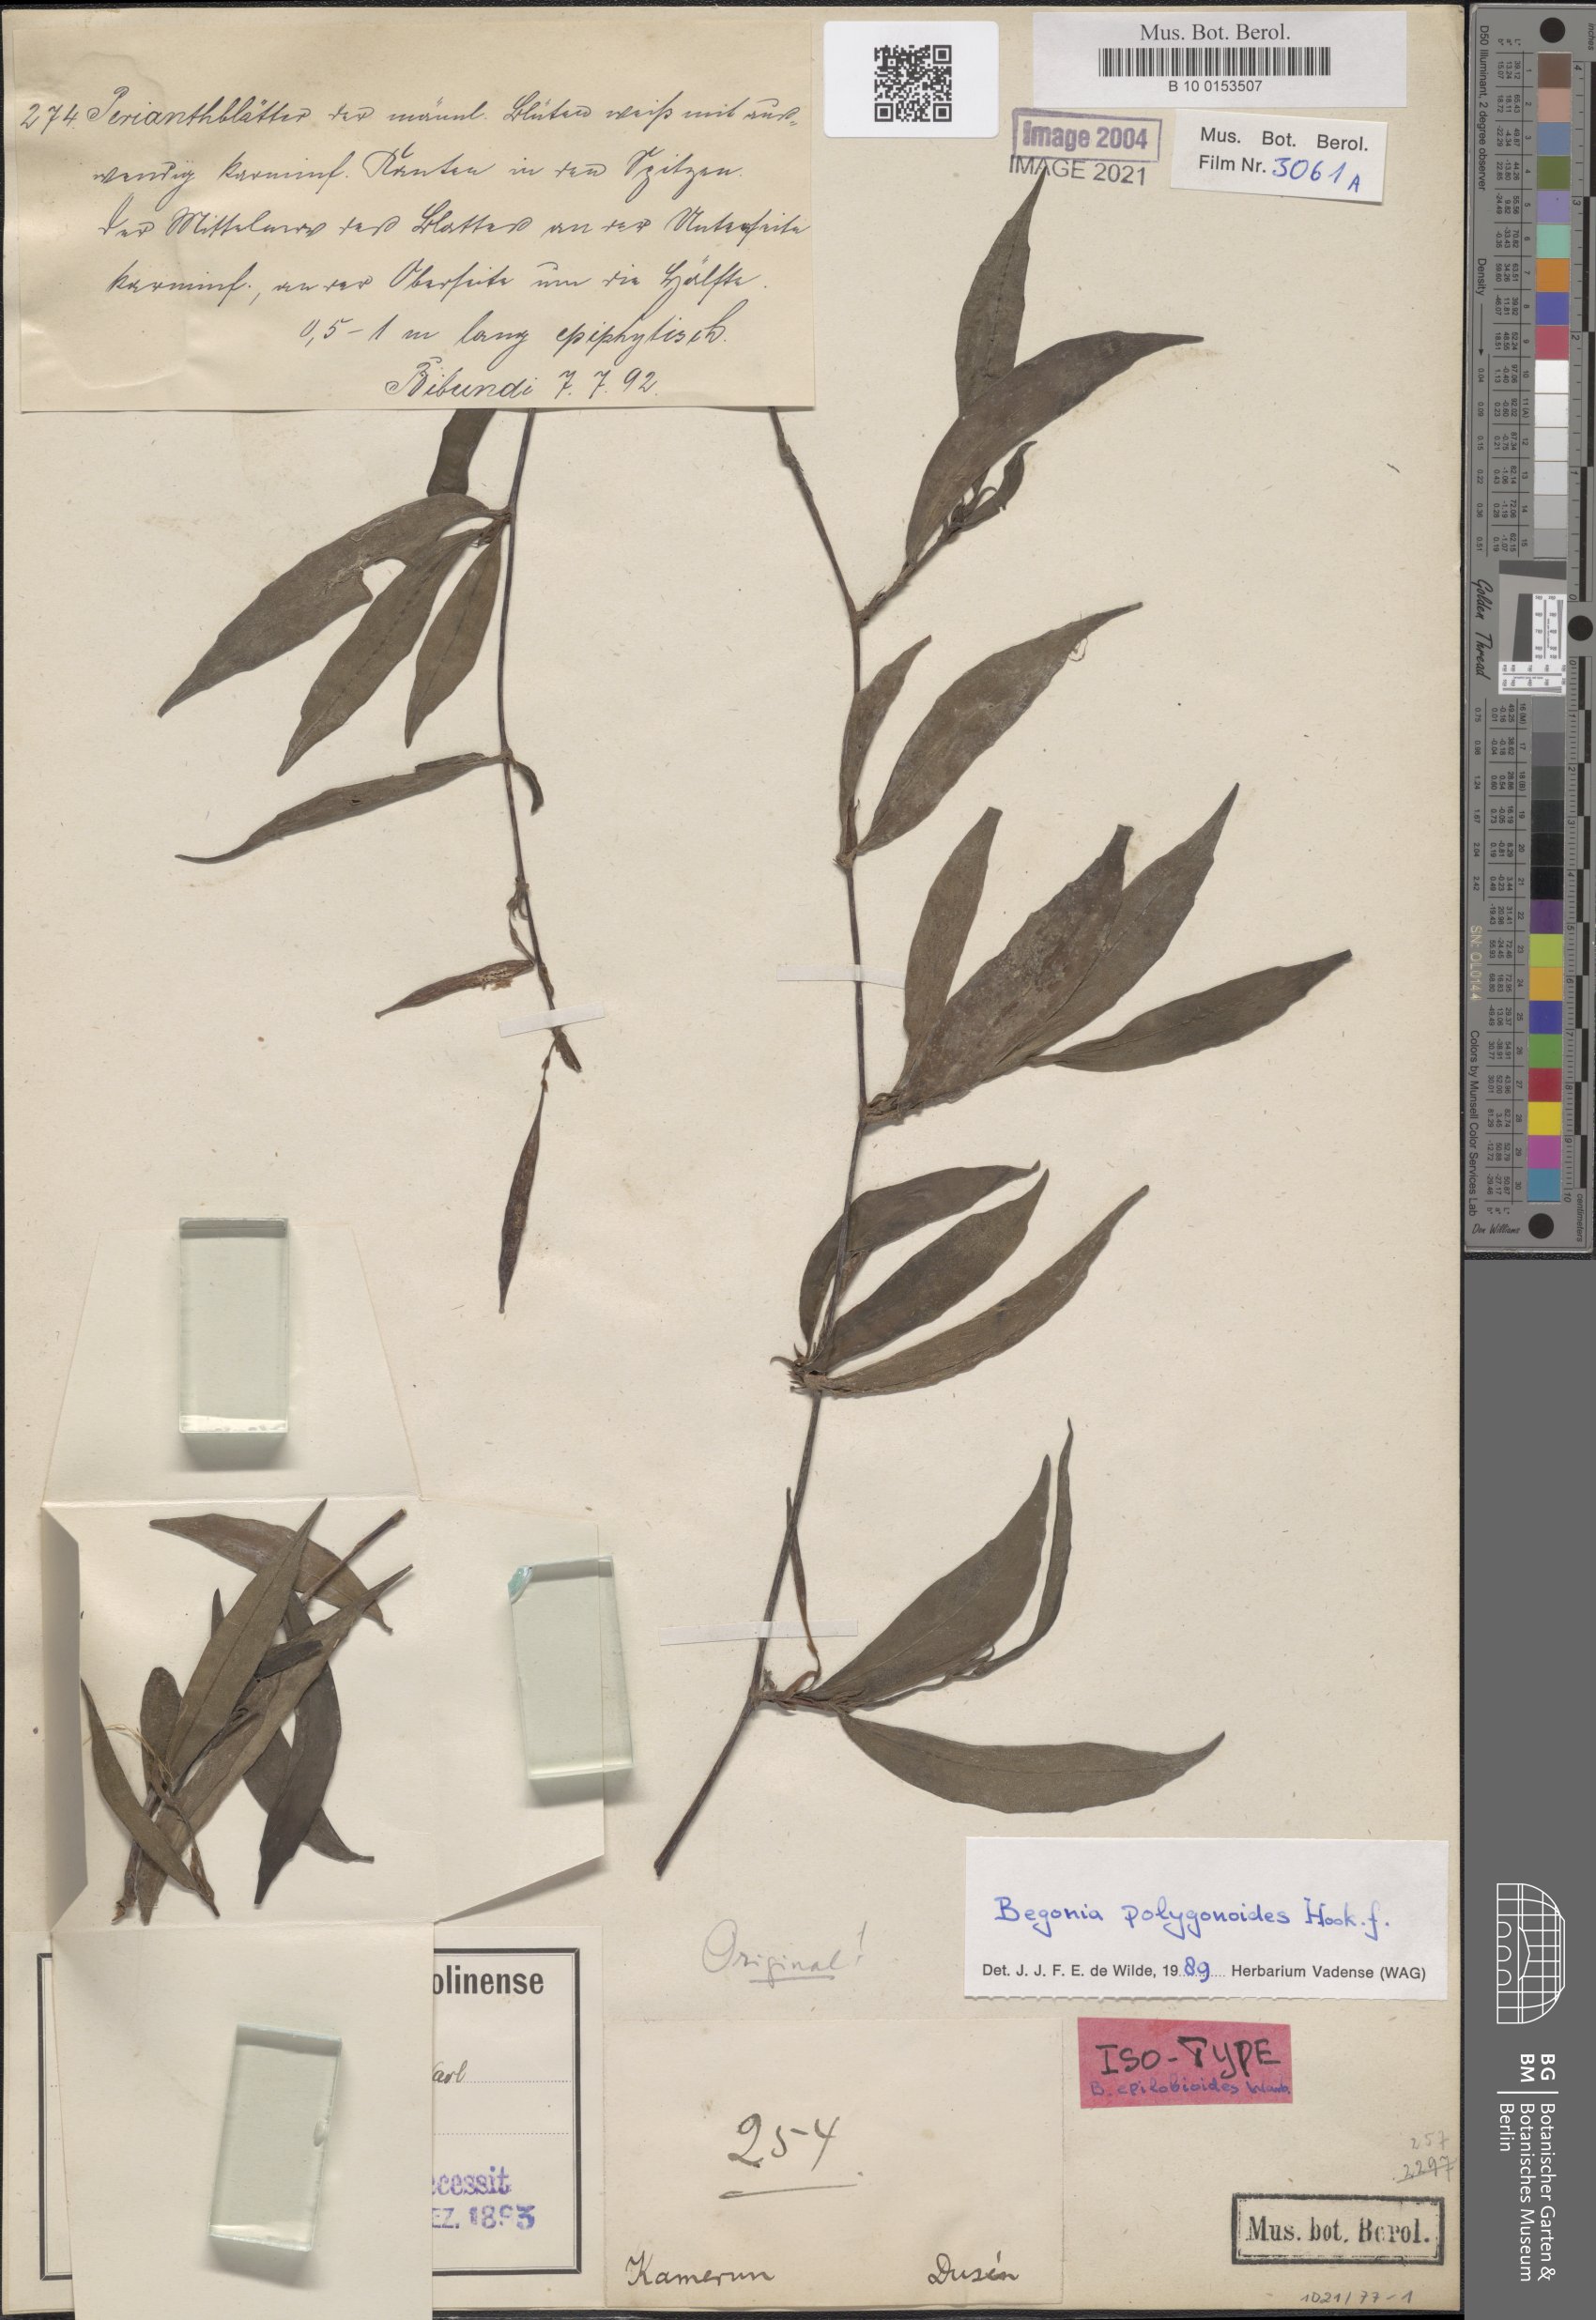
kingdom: Plantae
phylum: Tracheophyta
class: Magnoliopsida
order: Cucurbitales
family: Begoniaceae
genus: Begonia
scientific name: Begonia polygonoides
